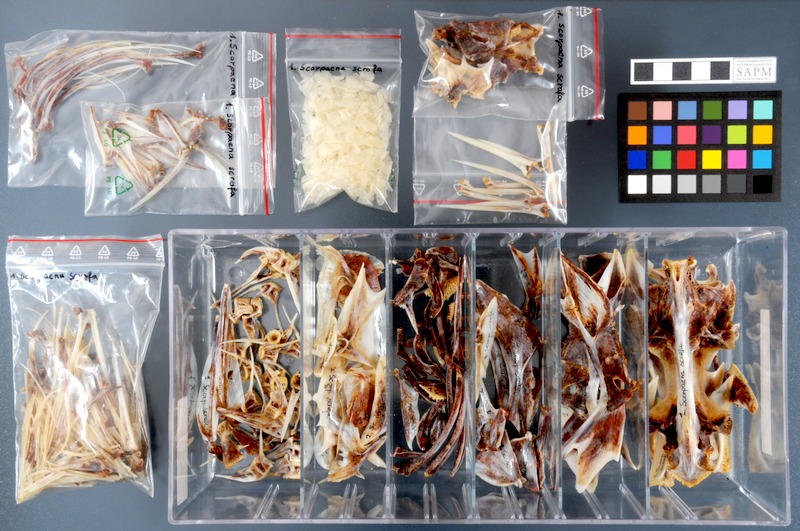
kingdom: Animalia
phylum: Chordata
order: Scorpaeniformes
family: Scorpaenidae
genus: Scorpaena
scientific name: Scorpaena scrofa
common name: Red scorpionfish
